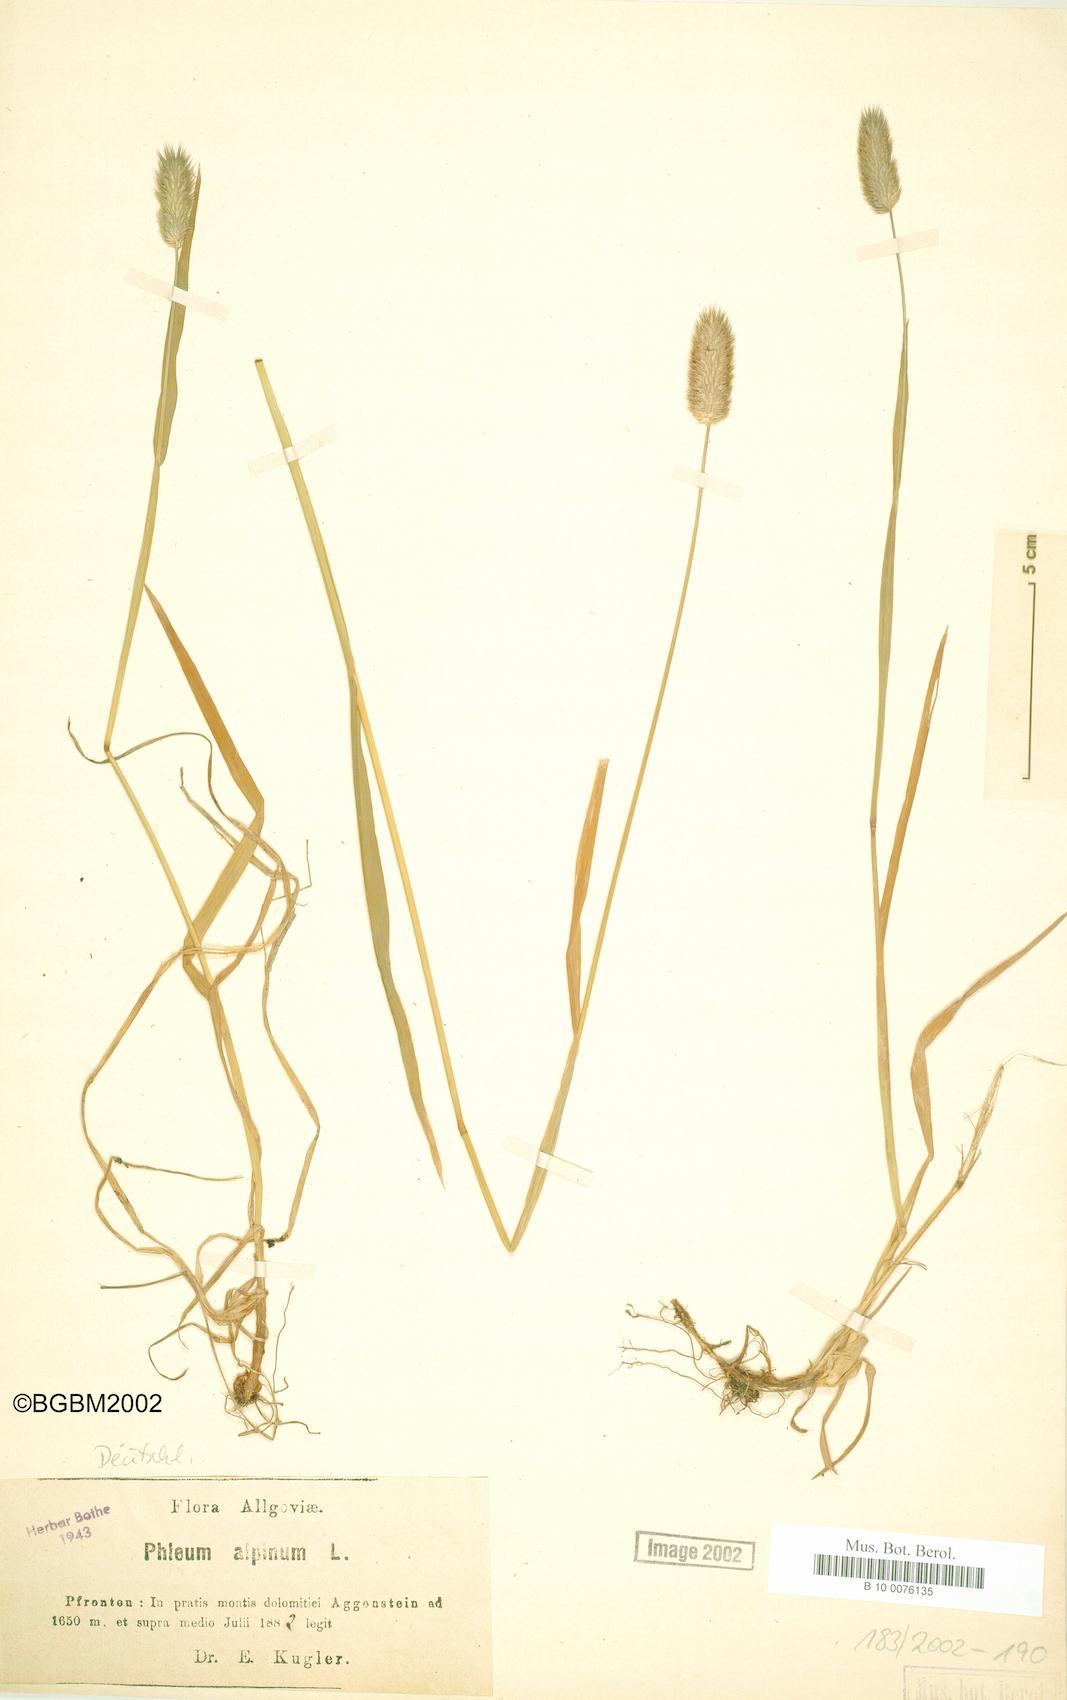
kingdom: Plantae
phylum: Tracheophyta
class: Liliopsida
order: Poales
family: Poaceae
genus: Phleum
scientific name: Phleum alpinum
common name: Alpine cat's-tail
